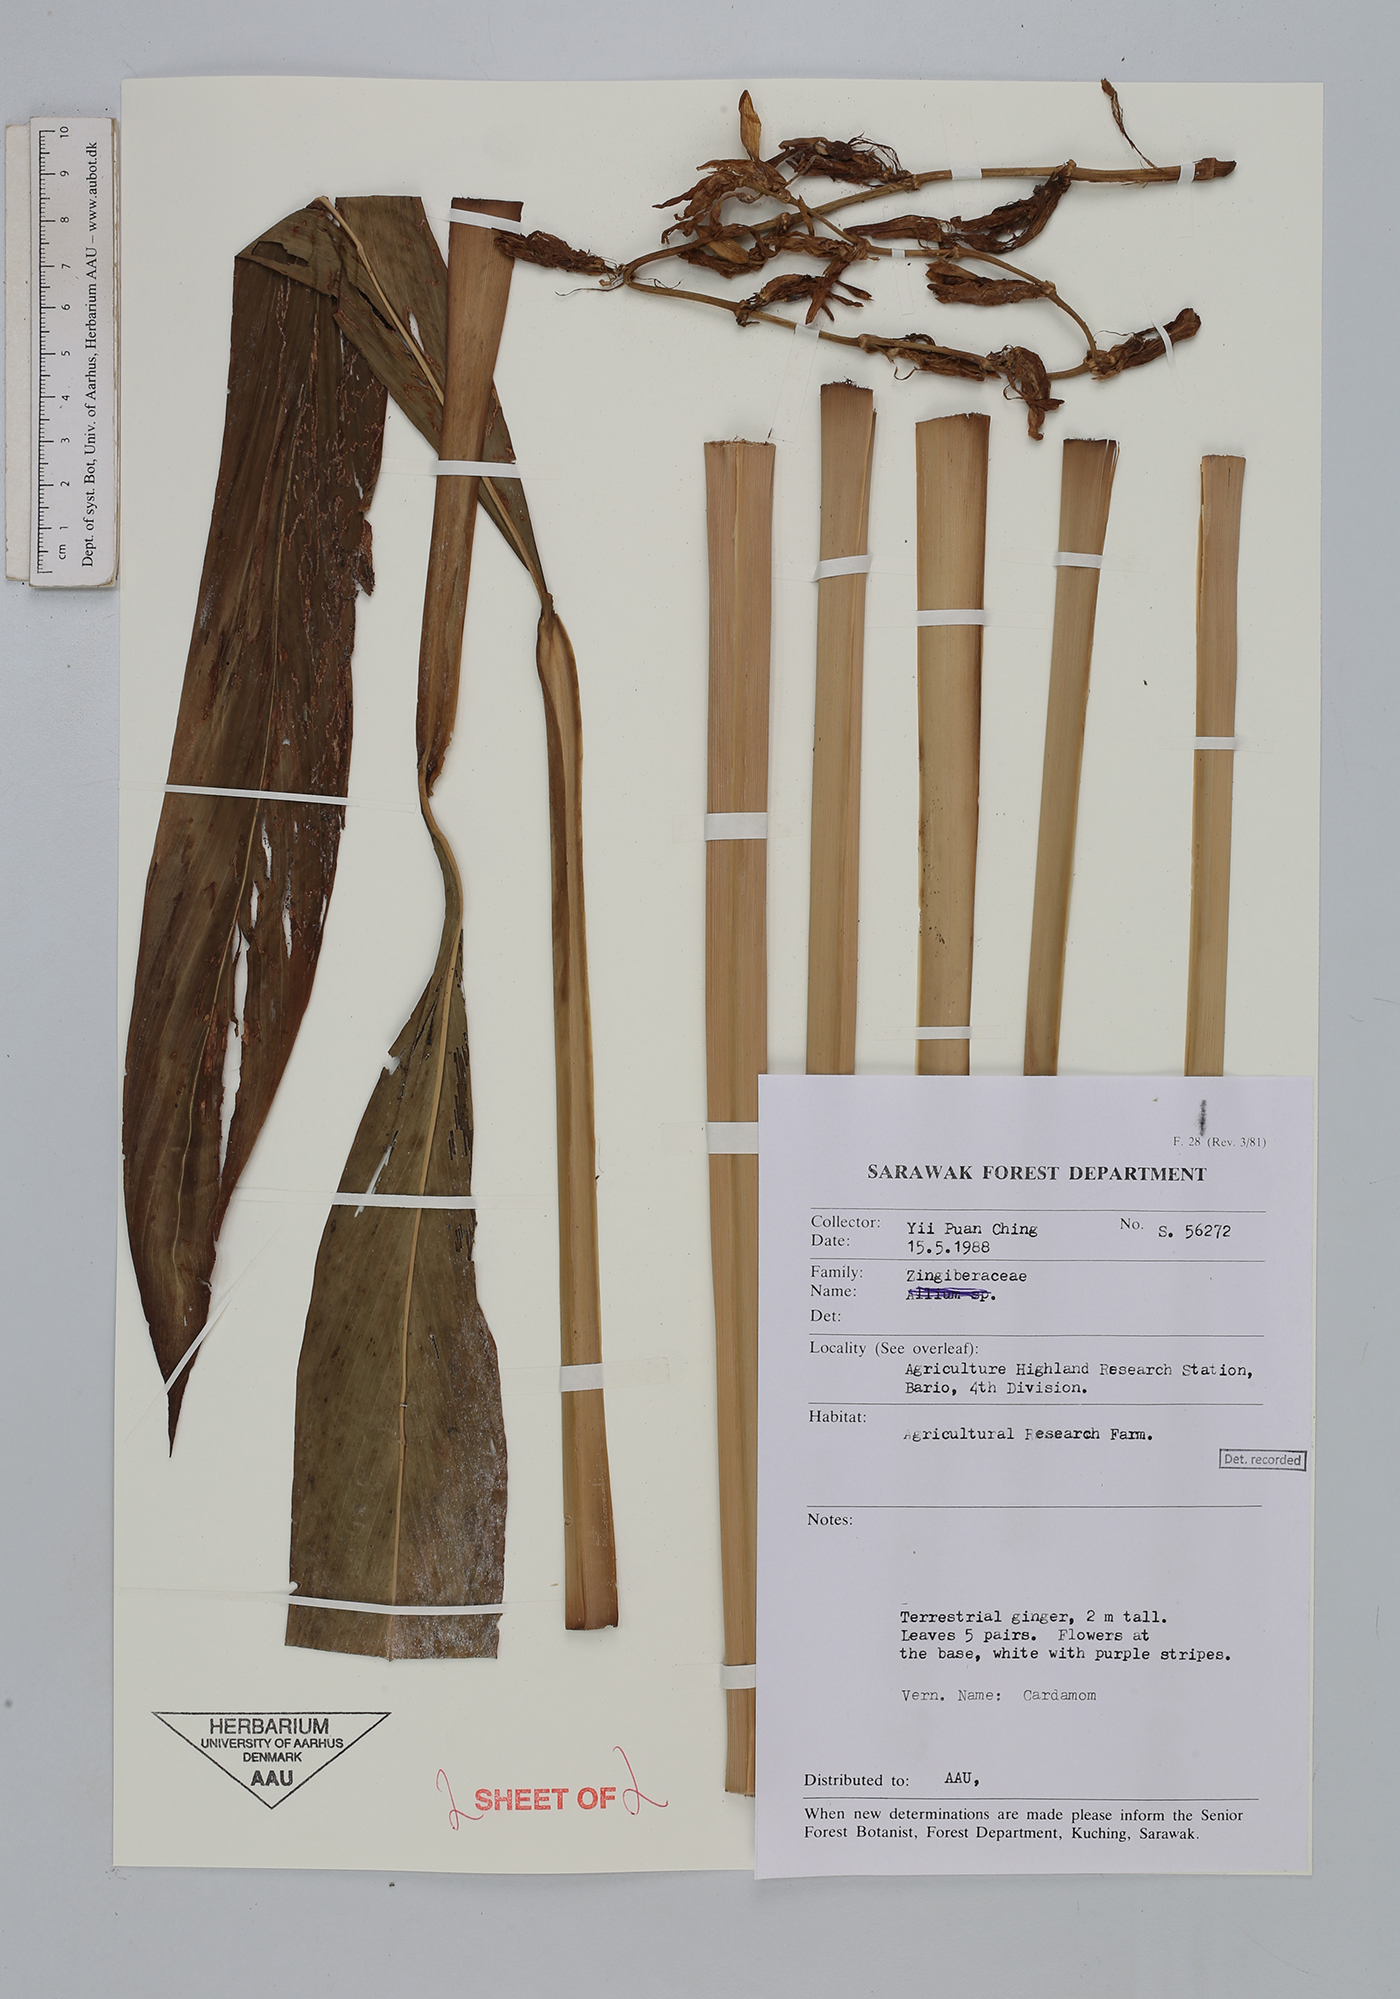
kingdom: Plantae
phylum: Tracheophyta
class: Liliopsida
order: Zingiberales
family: Zingiberaceae
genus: Elettaria
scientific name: Elettaria cardamomum
